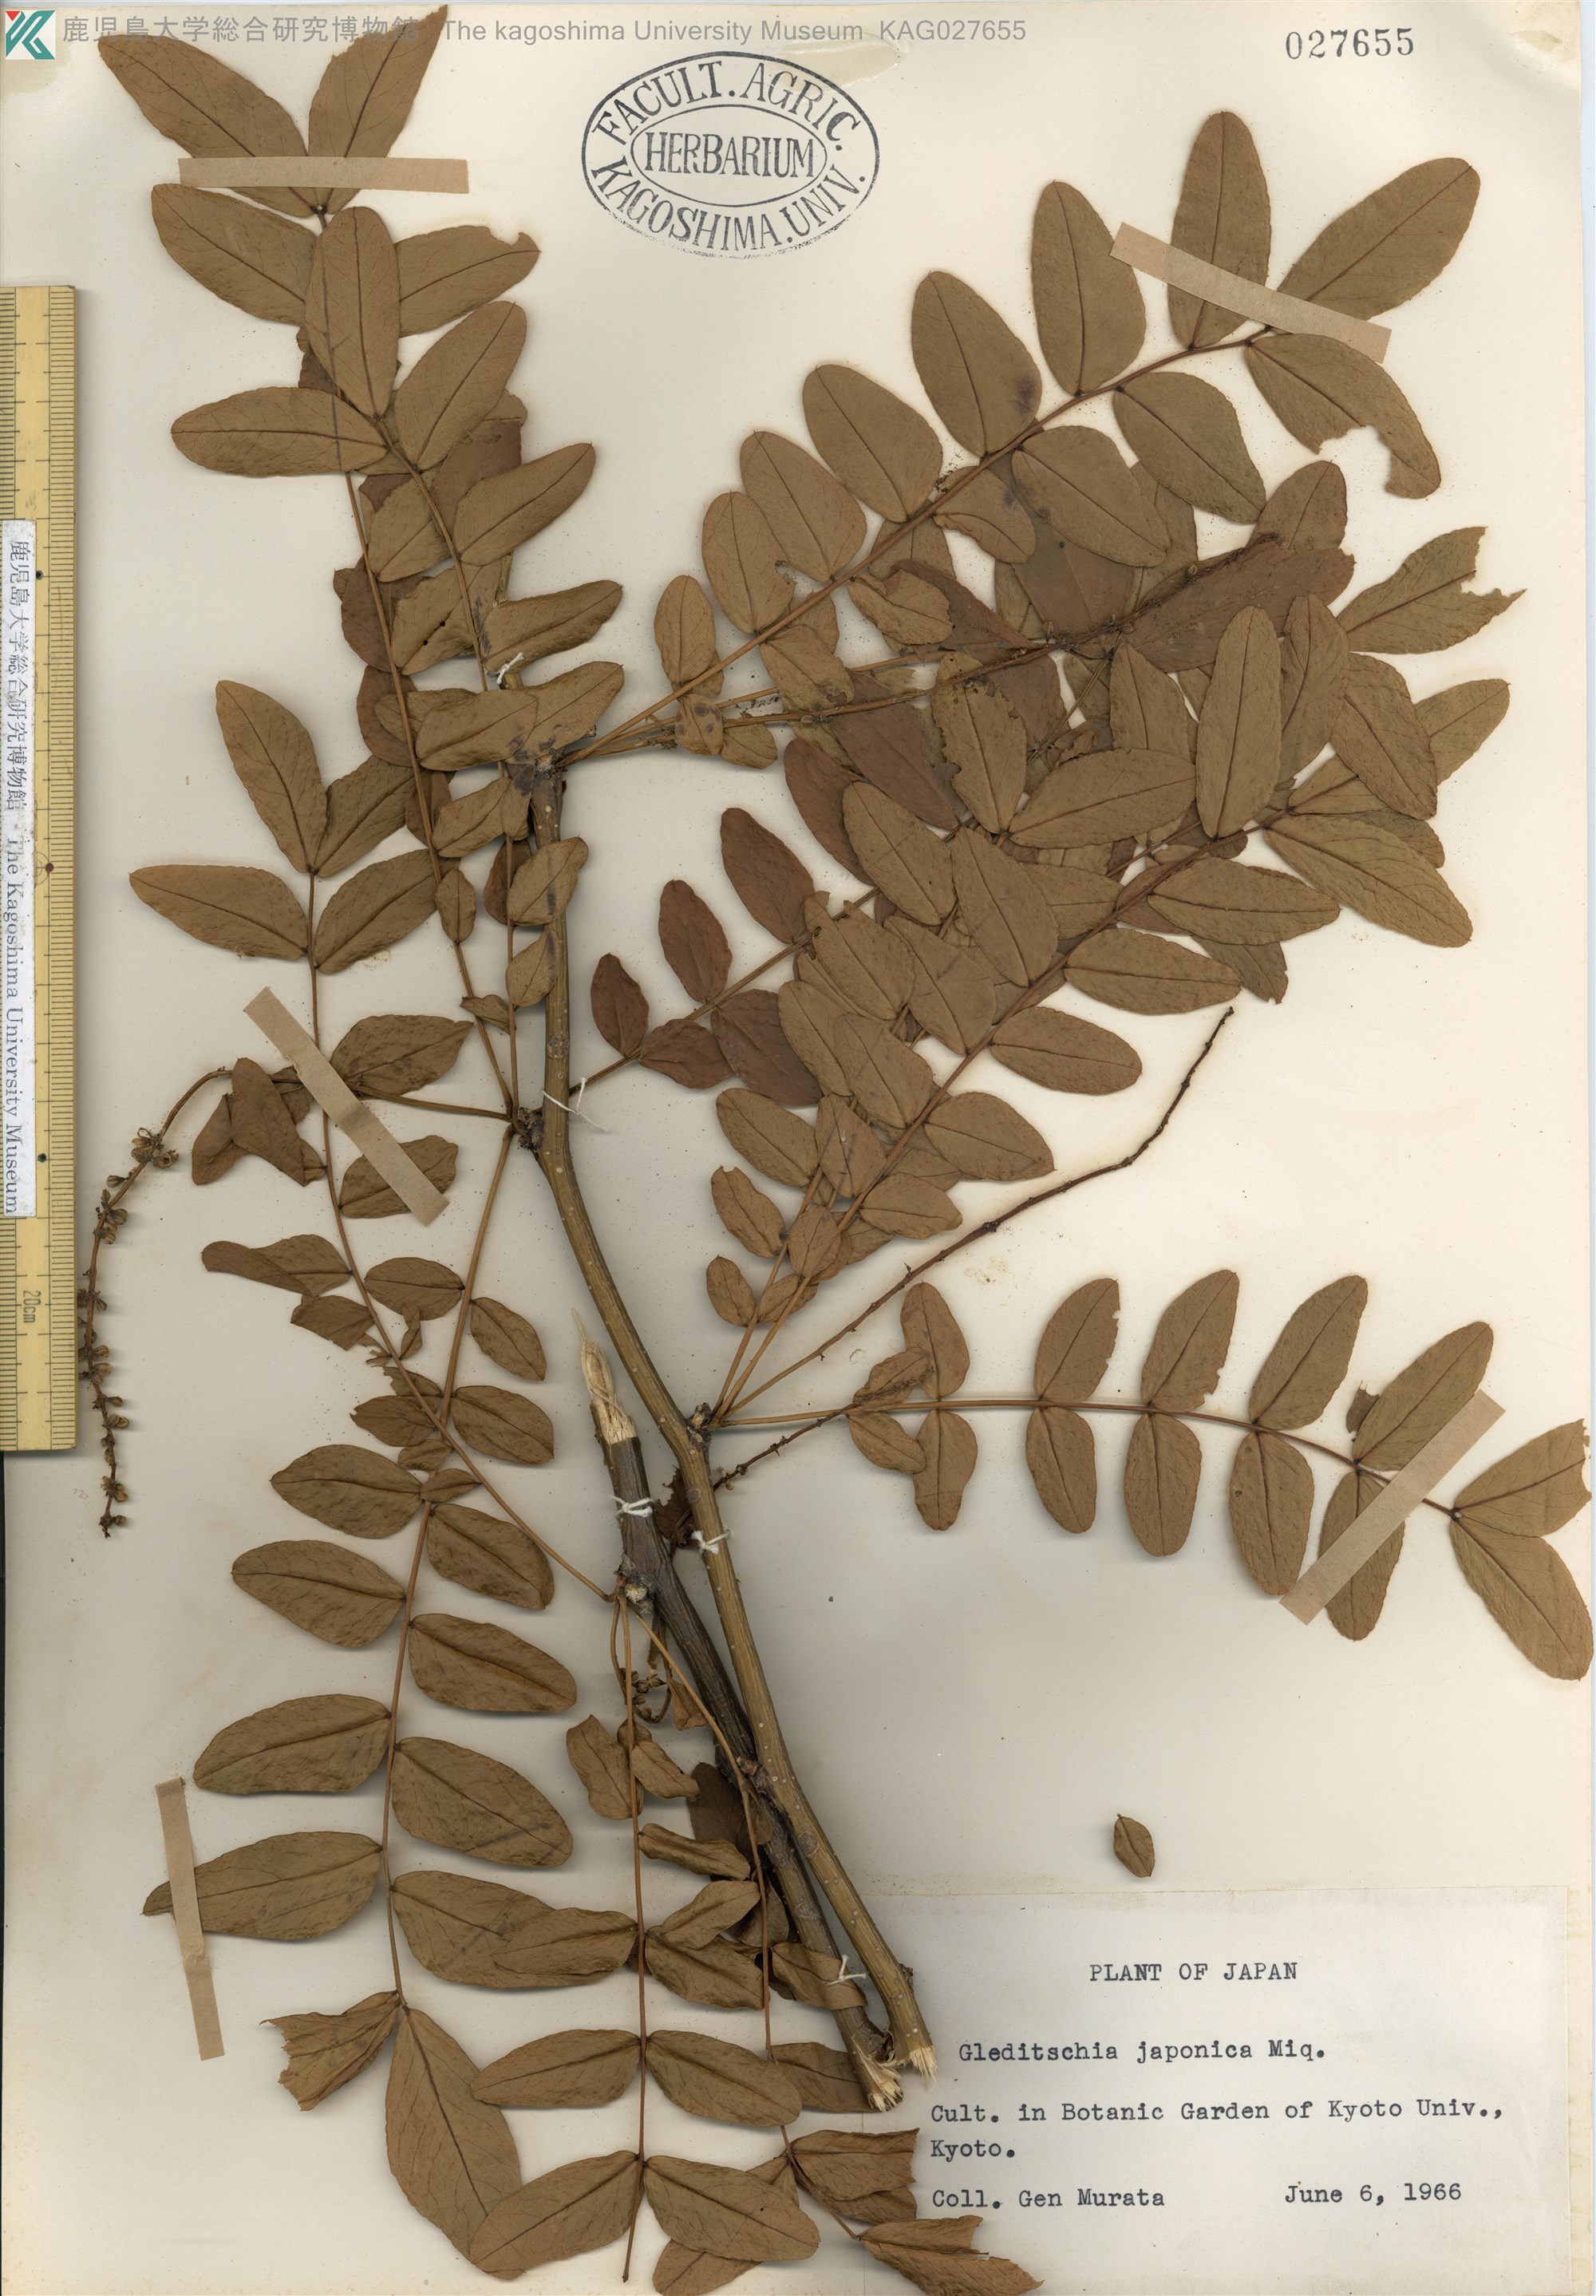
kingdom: Plantae
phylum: Tracheophyta
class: Magnoliopsida
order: Fabales
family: Fabaceae
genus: Gleditsia
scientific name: Gleditsia japonica
